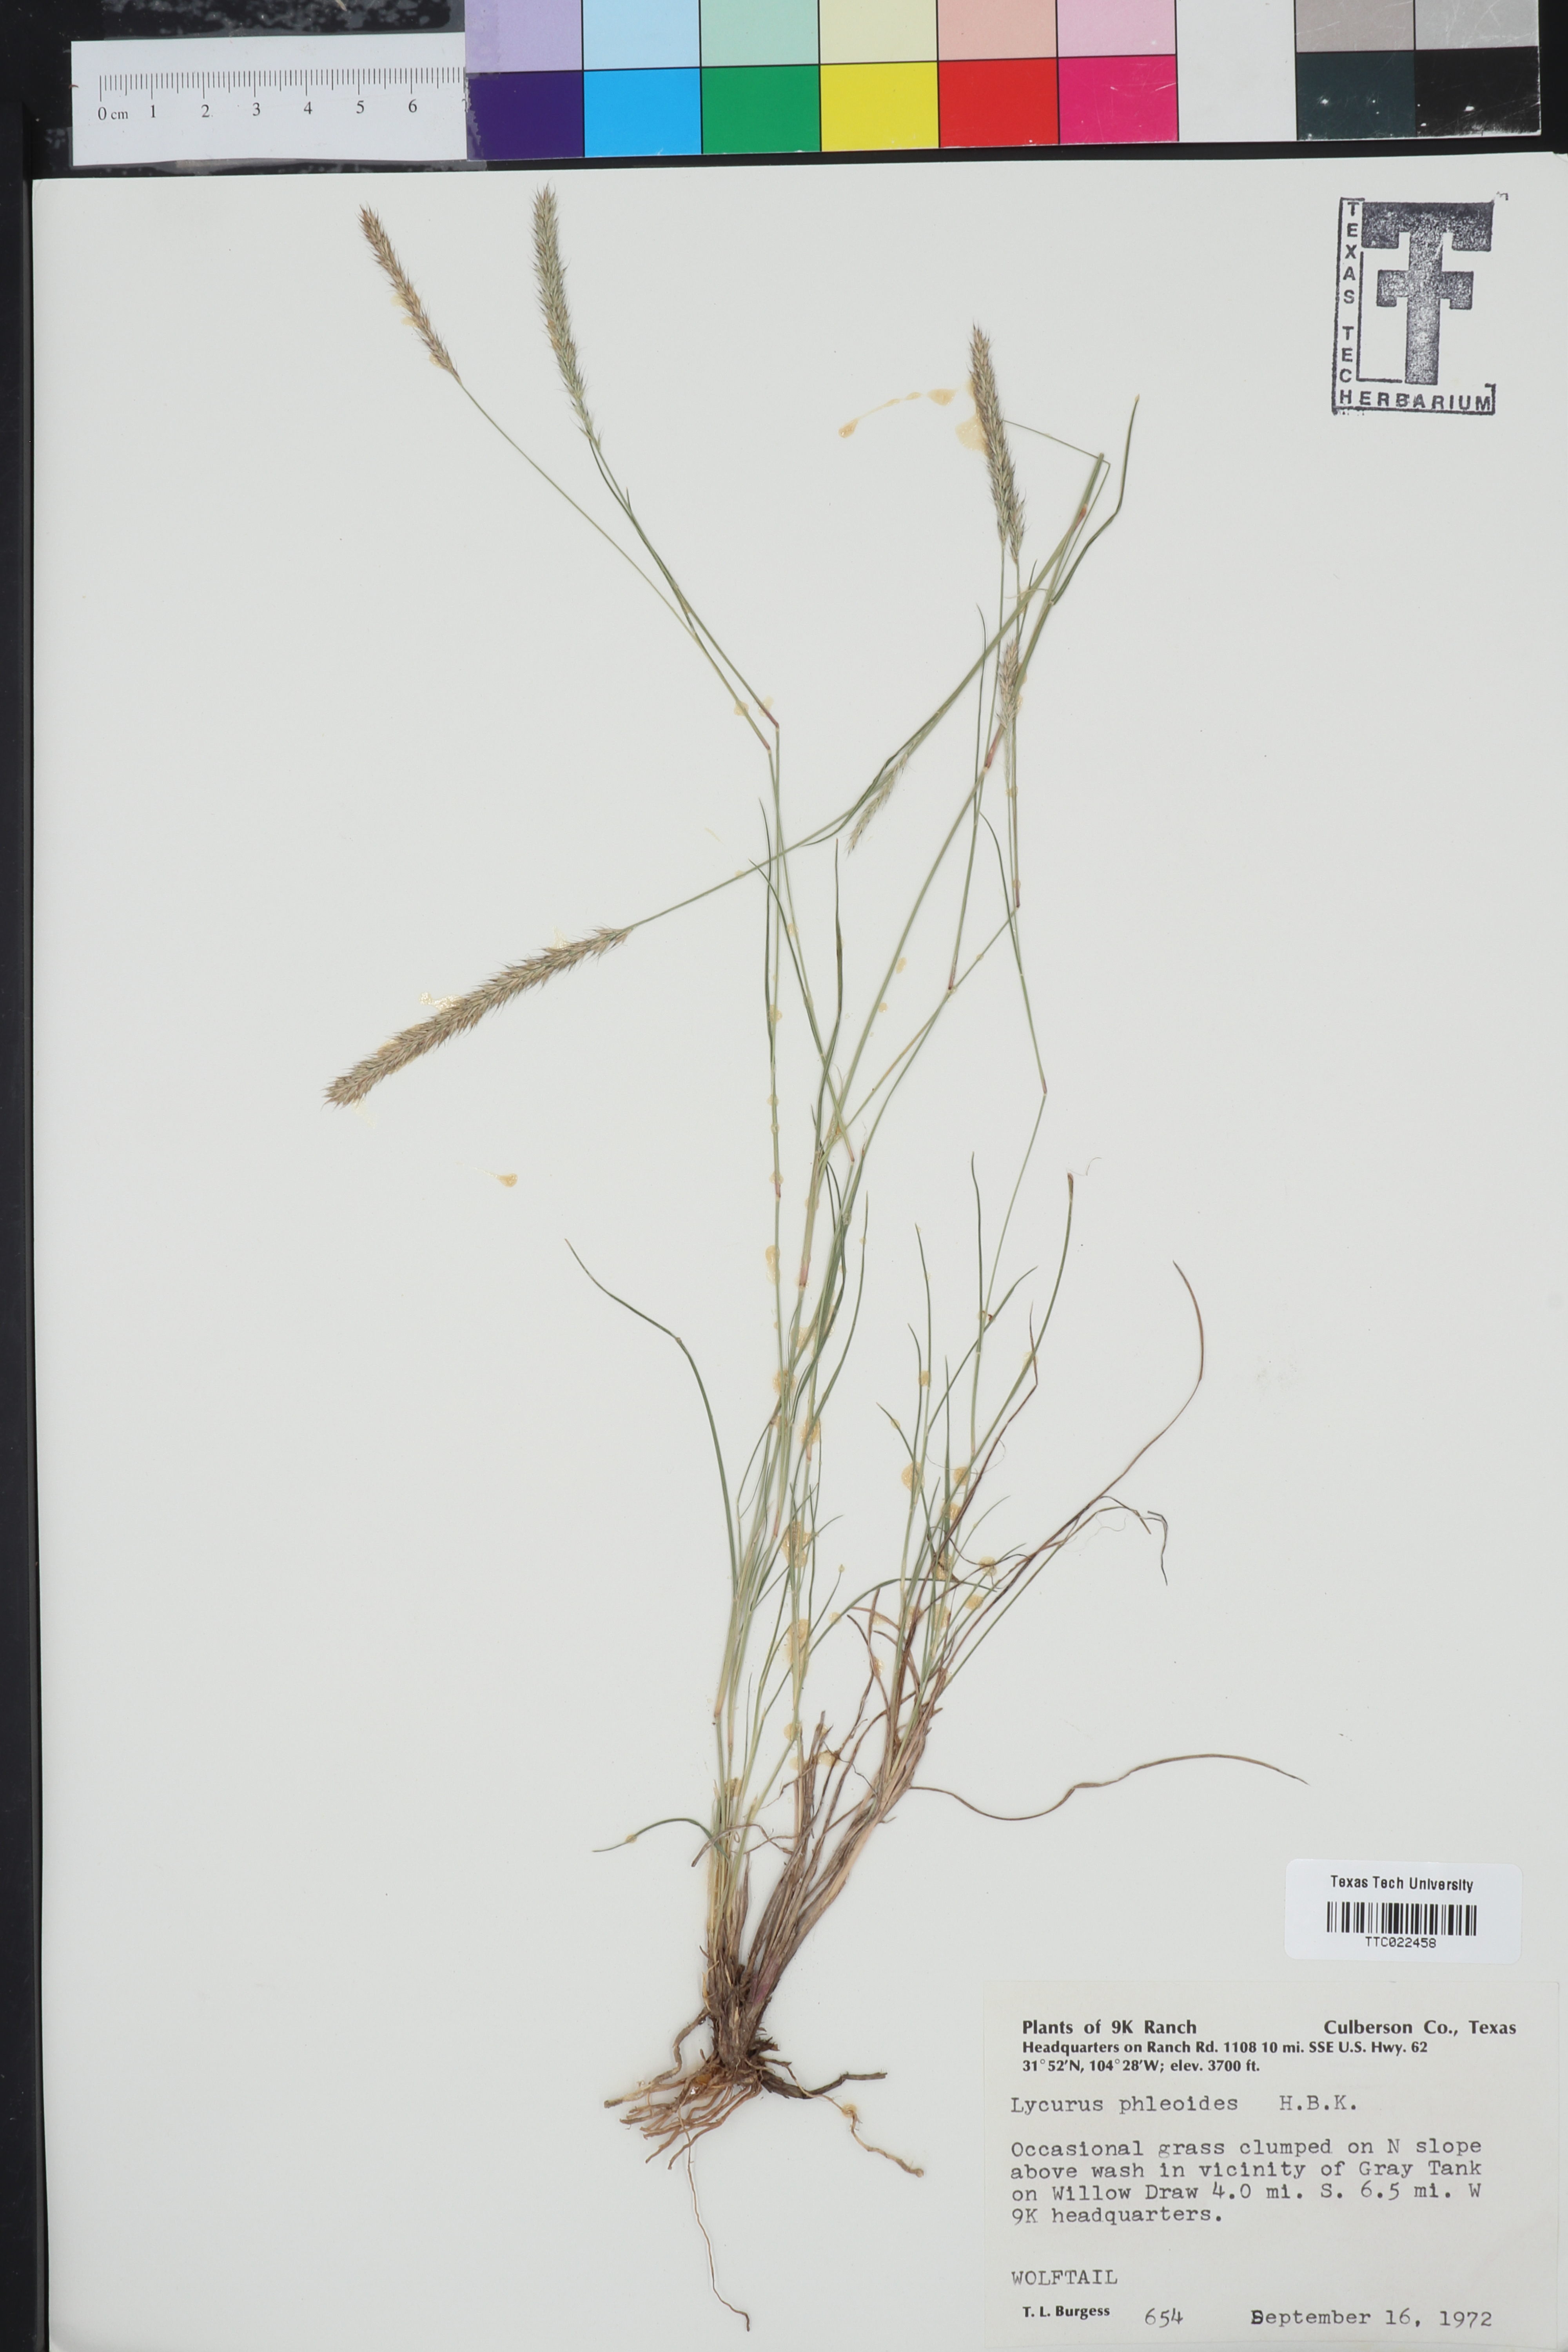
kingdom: Plantae
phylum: Tracheophyta
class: Liliopsida
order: Poales
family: Poaceae
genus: Muhlenbergia
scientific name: Muhlenbergia phleoides
